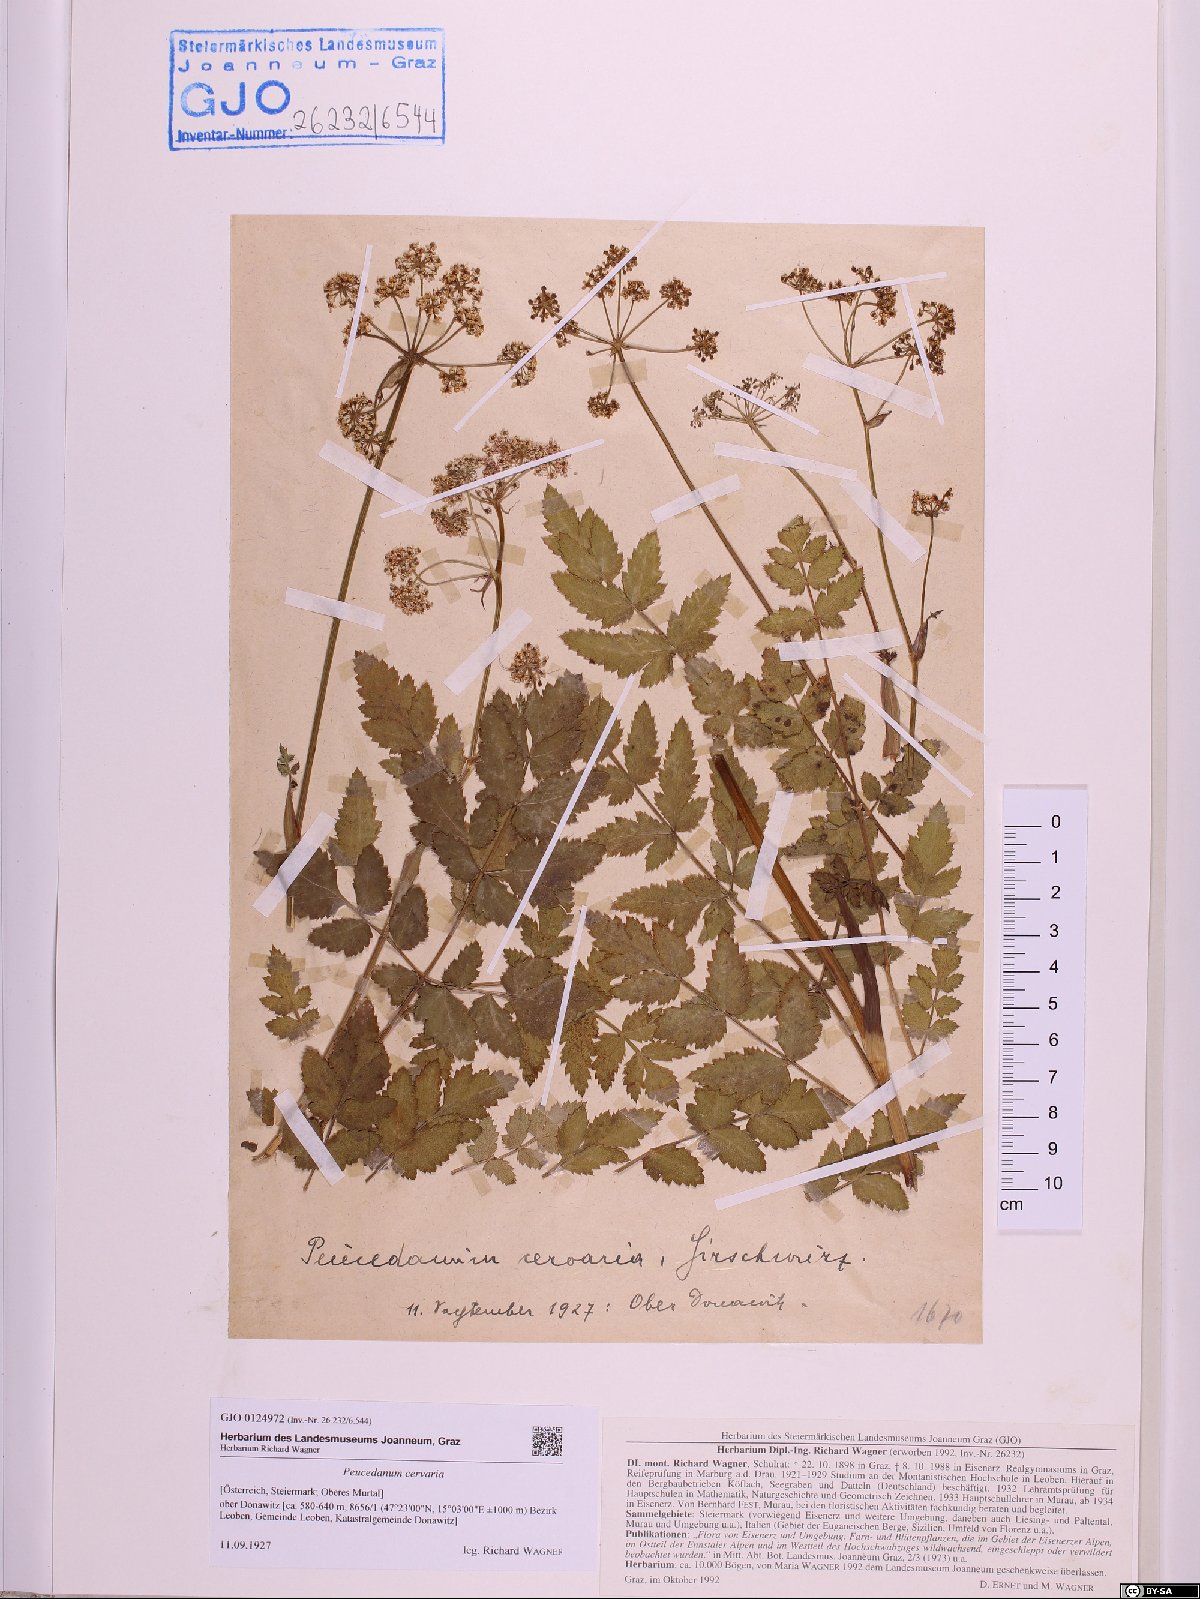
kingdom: Plantae
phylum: Tracheophyta
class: Magnoliopsida
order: Apiales
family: Apiaceae
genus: Cervaria
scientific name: Cervaria rivini
